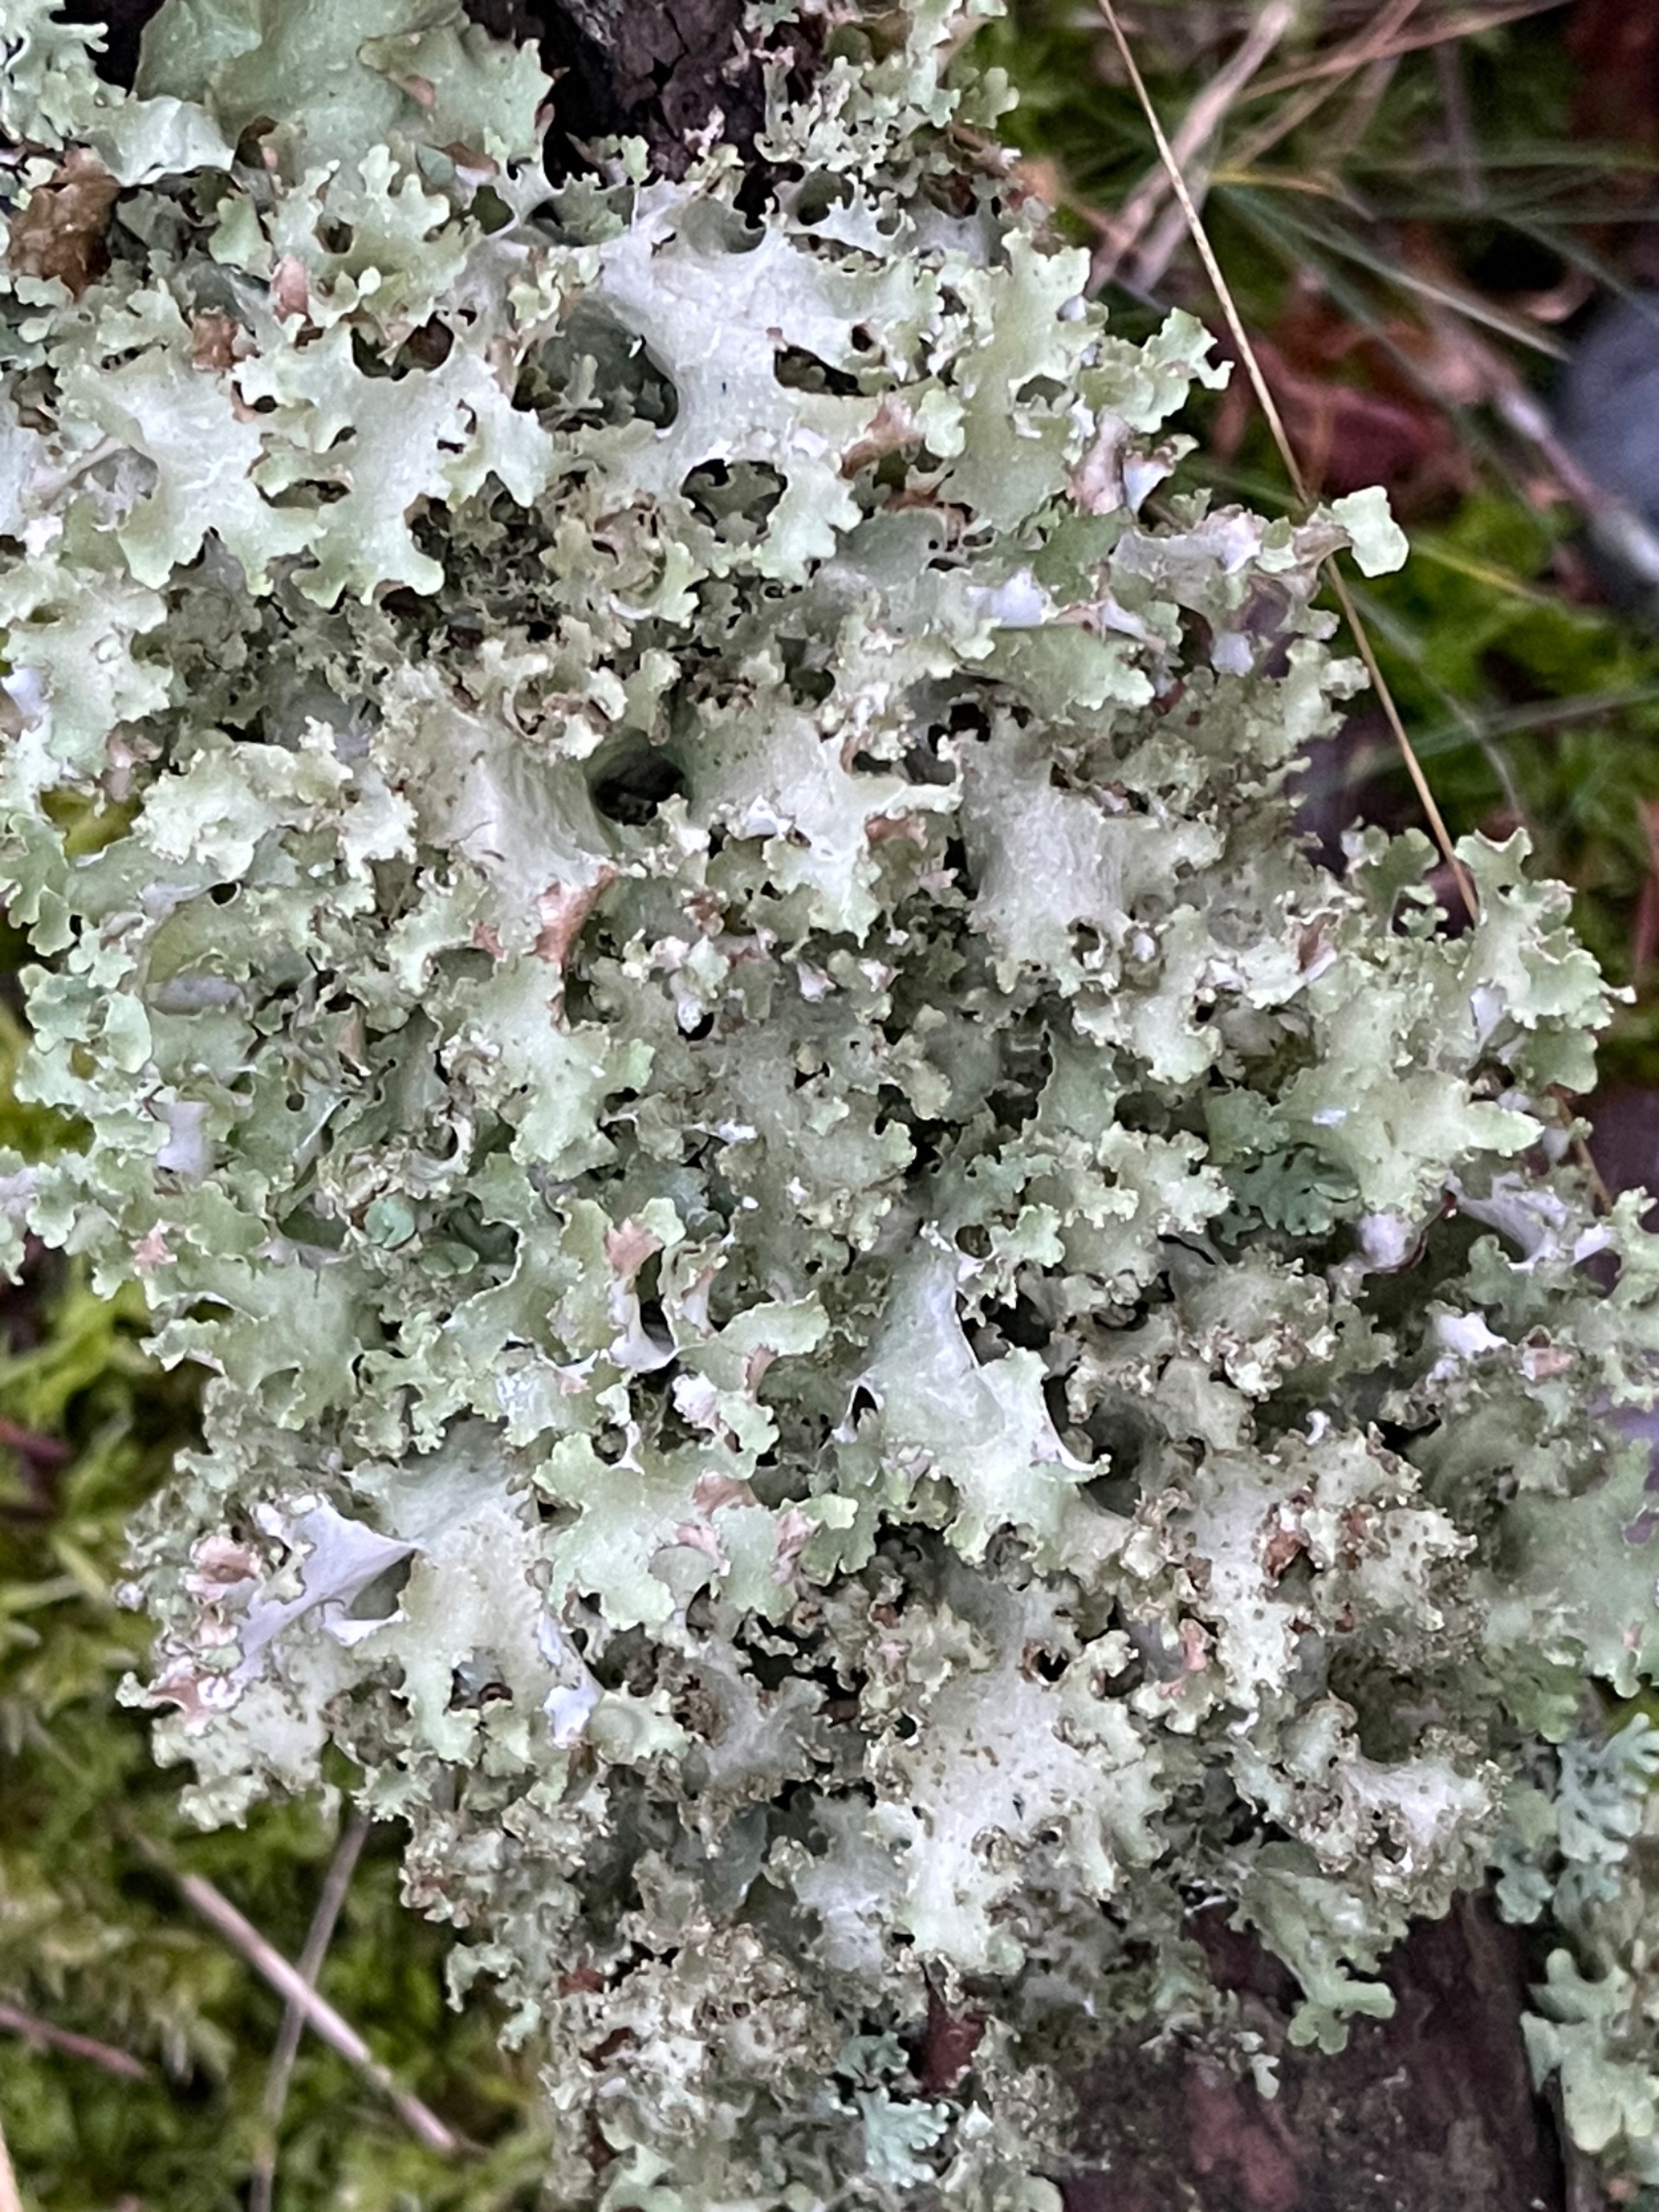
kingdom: Fungi
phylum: Ascomycota
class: Lecanoromycetes
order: Lecanorales
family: Parmeliaceae
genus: Platismatia
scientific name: Platismatia glauca
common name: Blågrå papirlav
